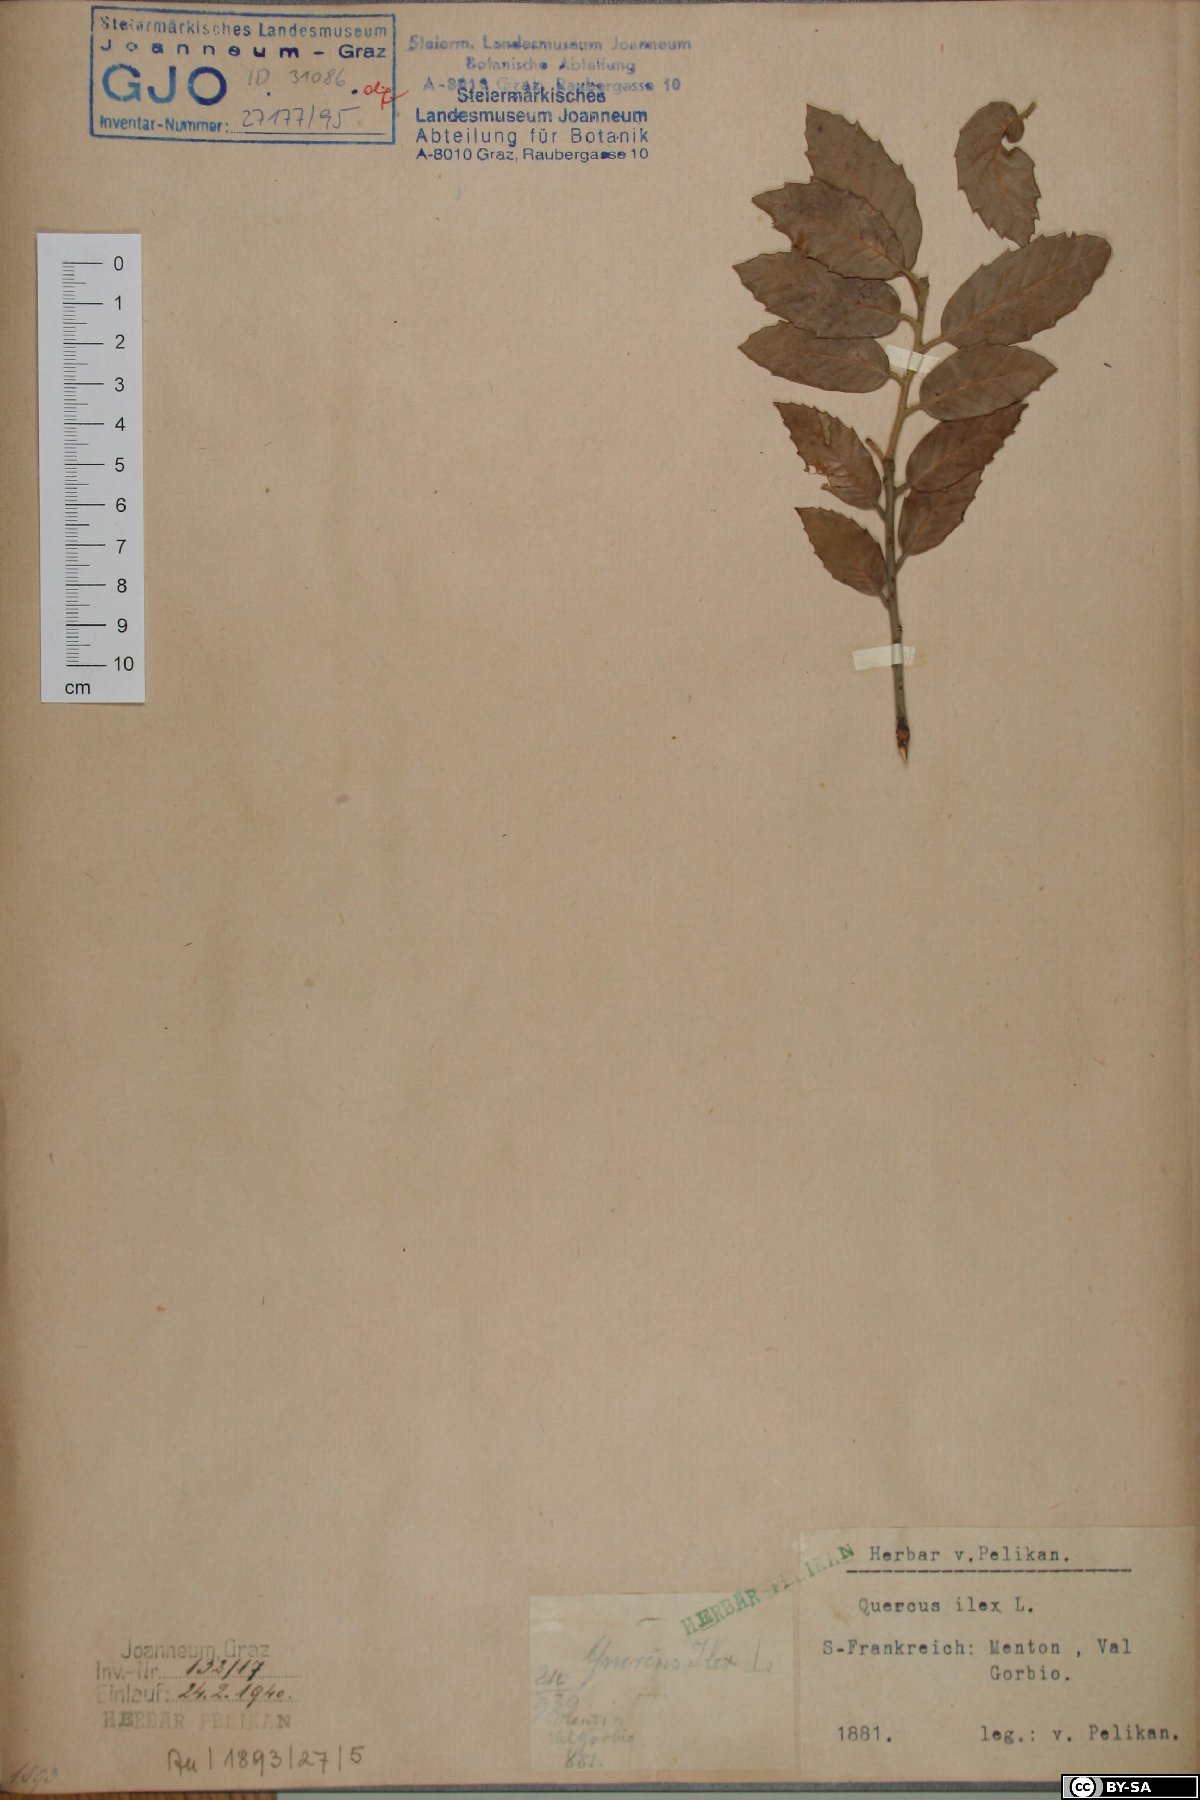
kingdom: Plantae
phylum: Tracheophyta
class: Magnoliopsida
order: Fagales
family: Fagaceae
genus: Quercus
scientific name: Quercus ilex
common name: Evergreen oak
